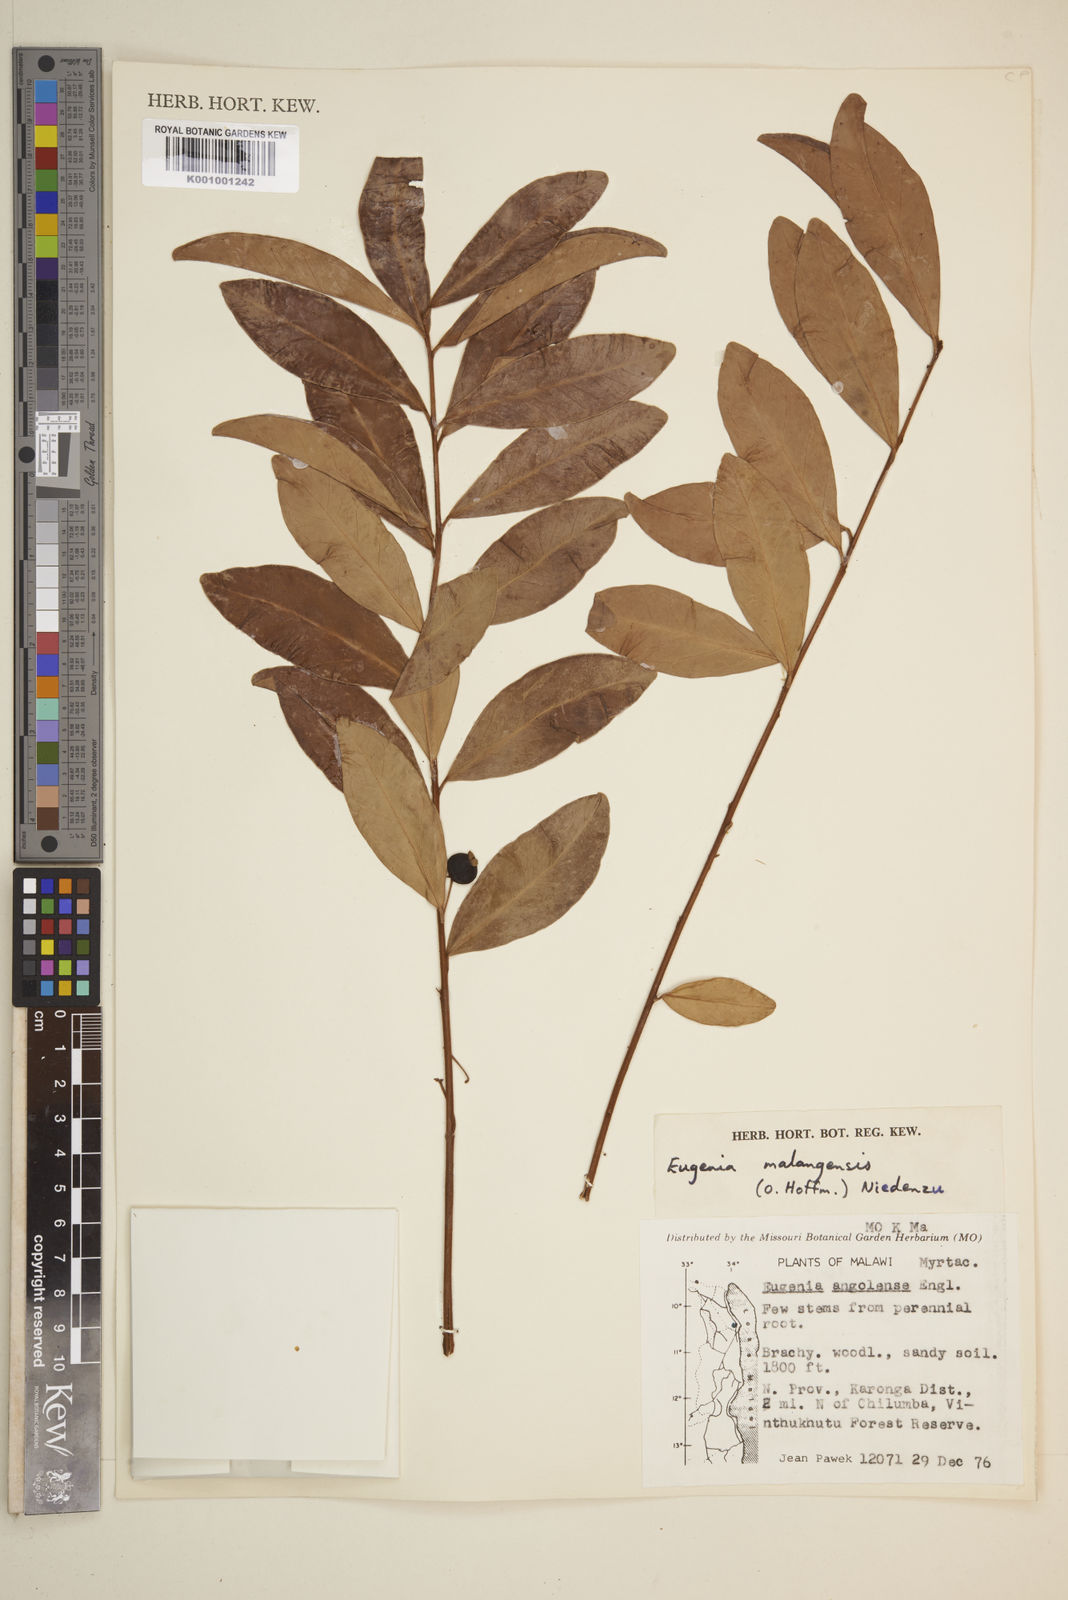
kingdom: Plantae
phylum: Tracheophyta
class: Magnoliopsida
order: Myrtales
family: Myrtaceae
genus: Eugenia
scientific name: Eugenia malangensis
